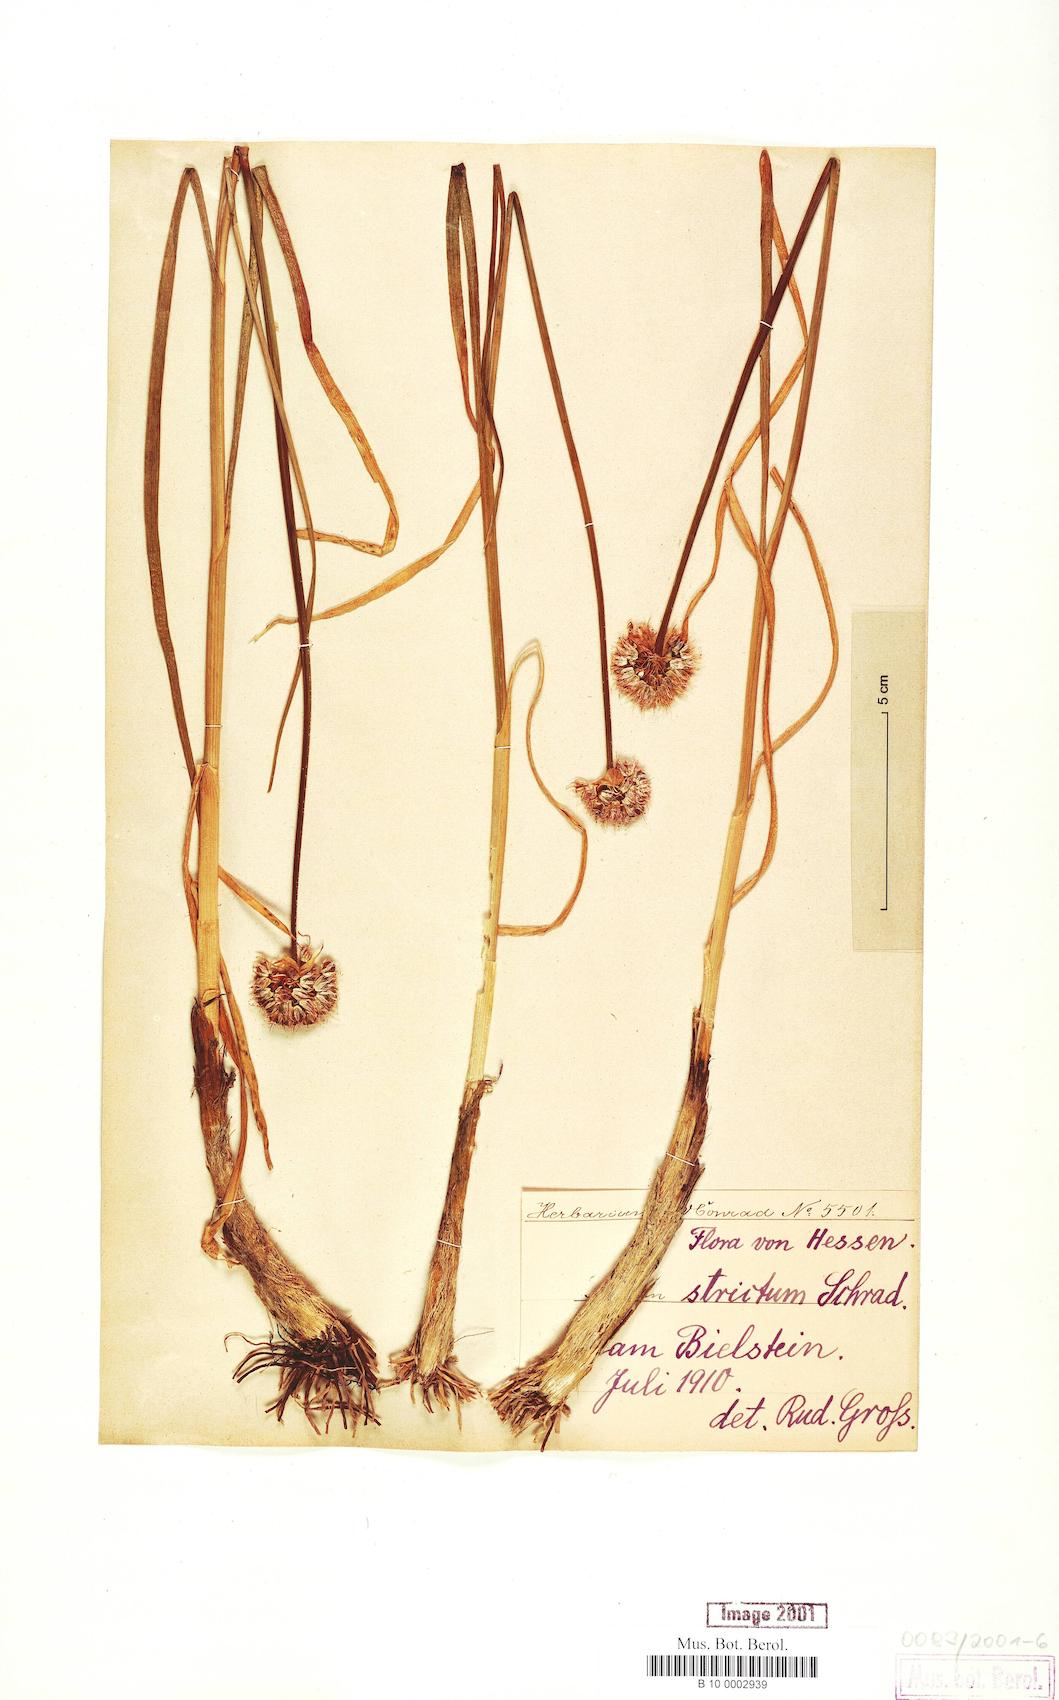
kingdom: Plantae
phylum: Tracheophyta
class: Liliopsida
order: Asparagales
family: Amaryllidaceae
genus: Allium
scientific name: Allium strictum
